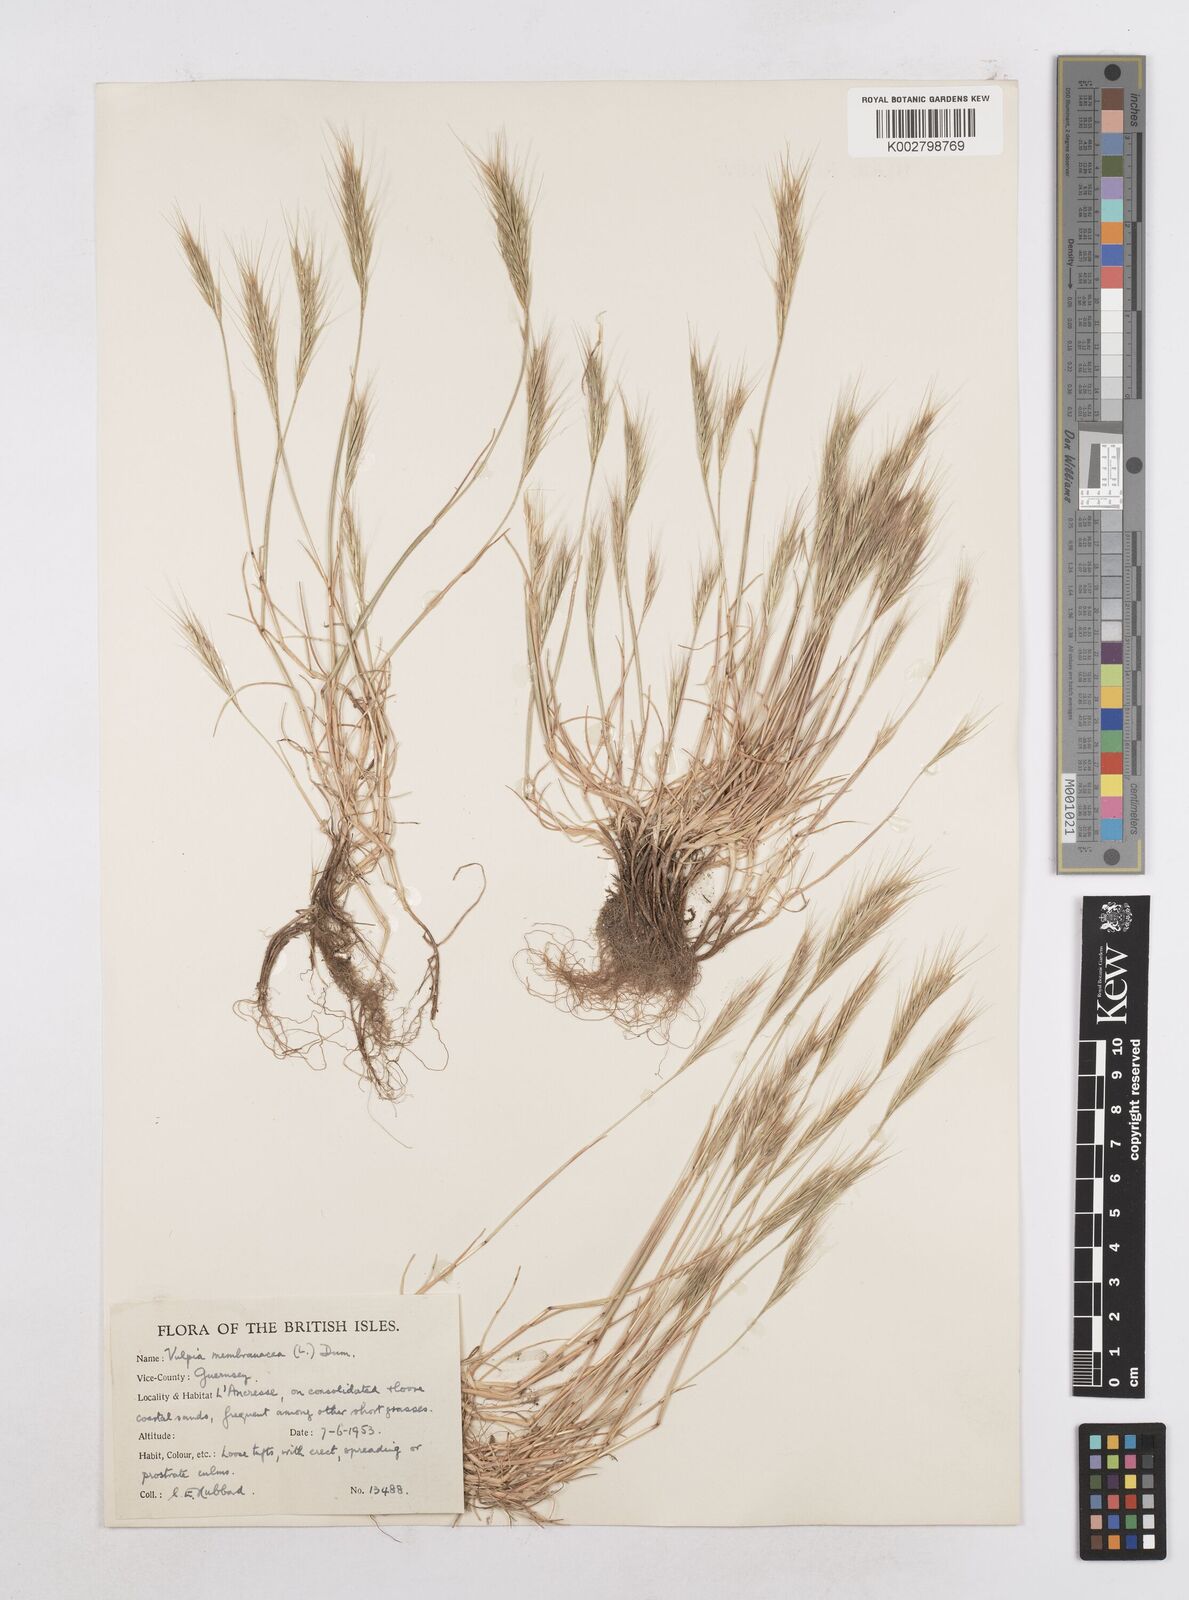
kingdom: Plantae
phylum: Tracheophyta
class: Liliopsida
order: Poales
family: Poaceae
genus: Festuca
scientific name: Festuca fasciculata
